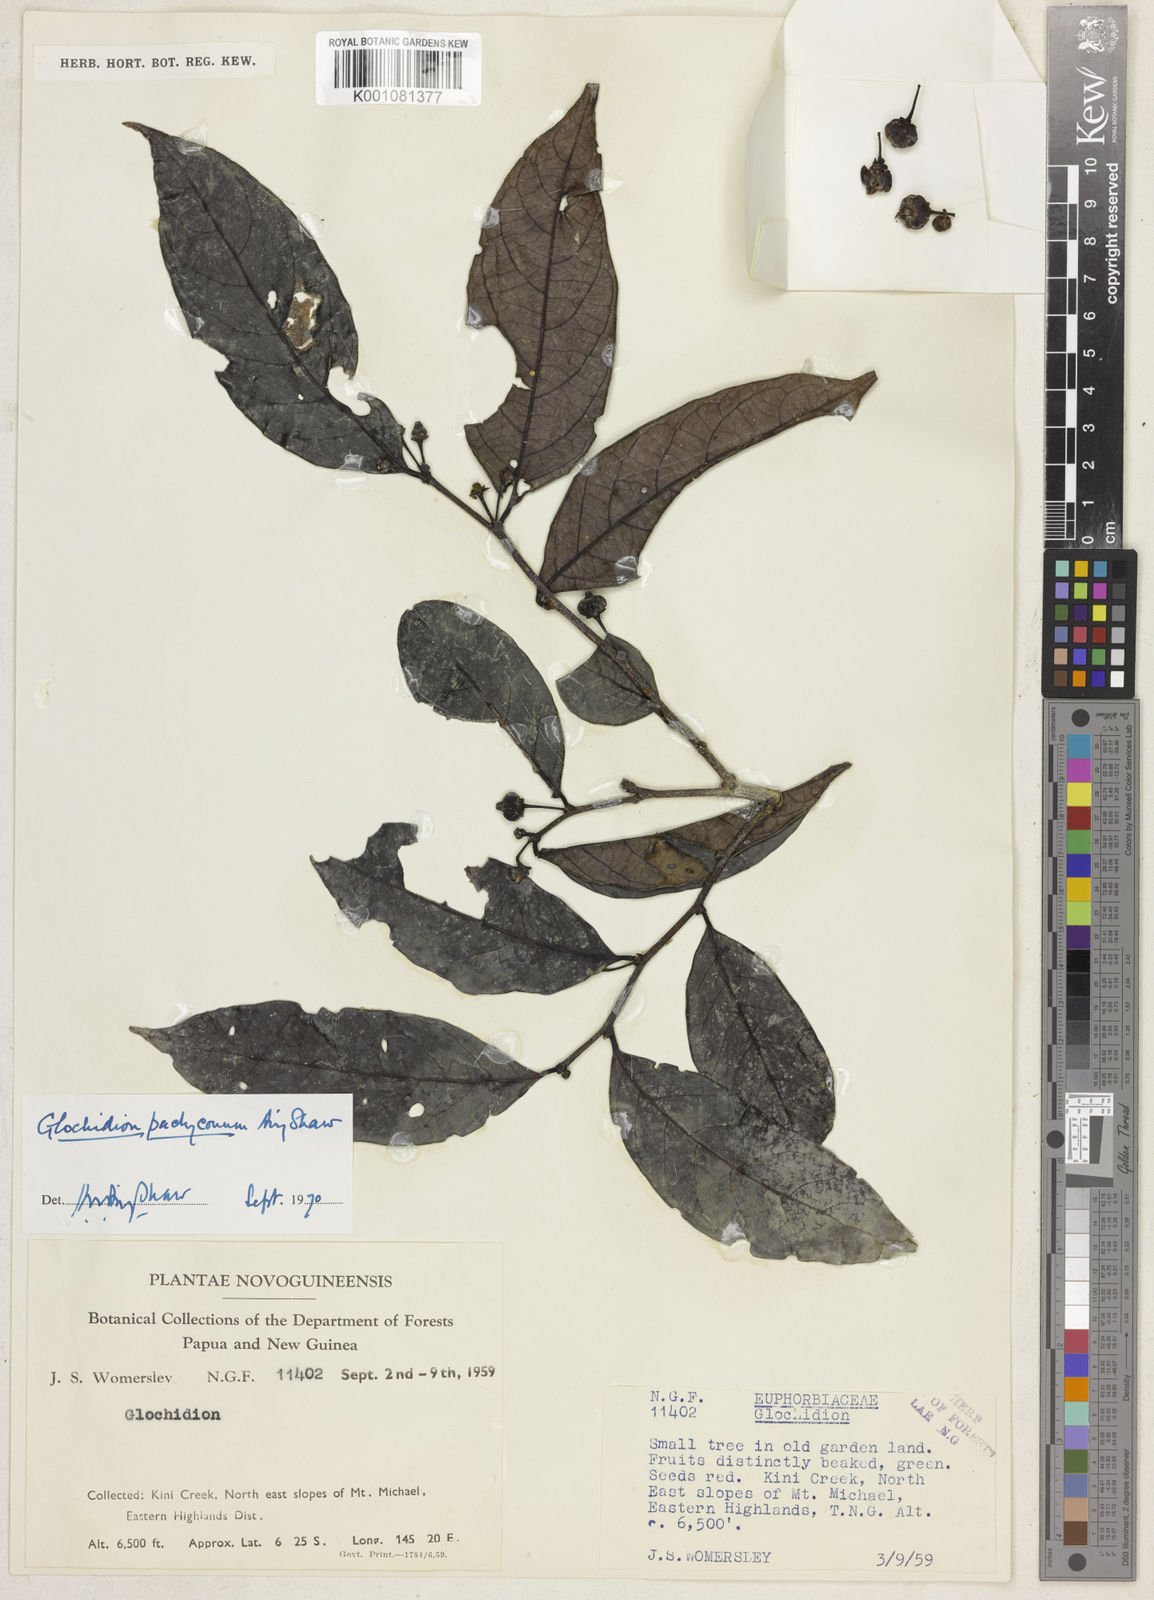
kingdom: Plantae
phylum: Tracheophyta
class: Magnoliopsida
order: Malpighiales
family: Phyllanthaceae
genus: Glochidion
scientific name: Glochidion pachyconum
